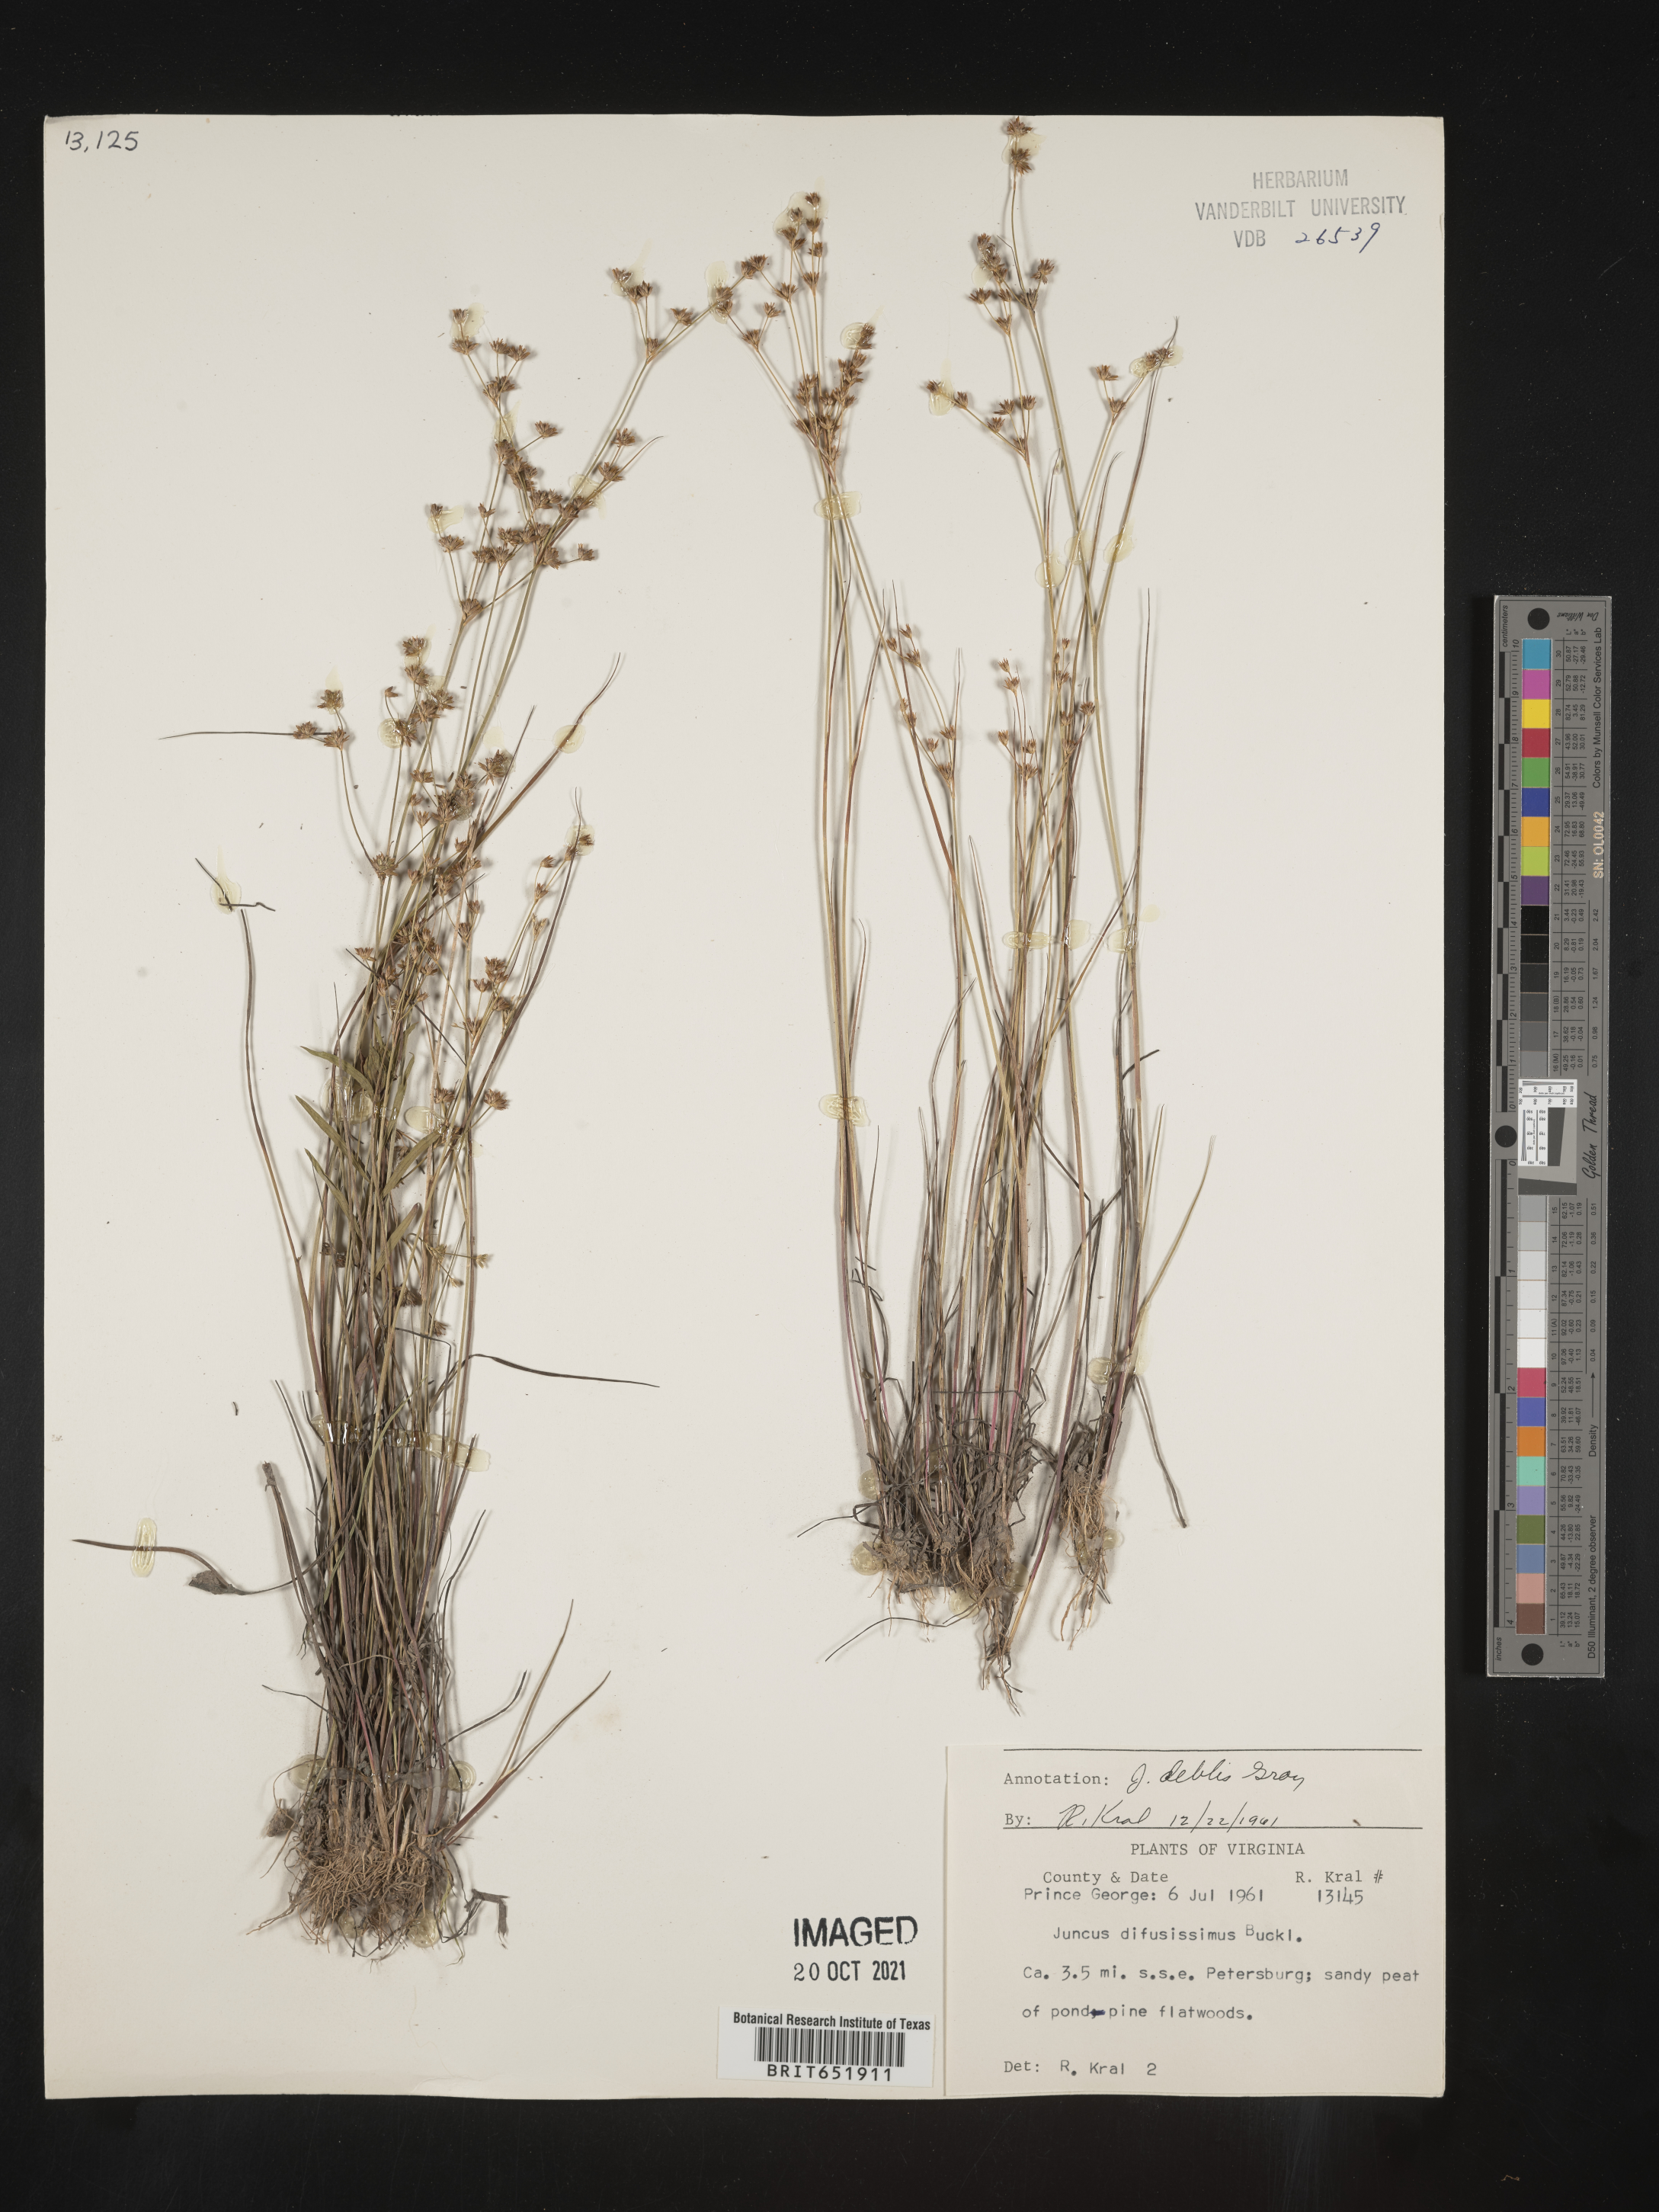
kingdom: Plantae
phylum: Tracheophyta
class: Liliopsida
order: Poales
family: Juncaceae
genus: Juncus
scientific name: Juncus debilis
